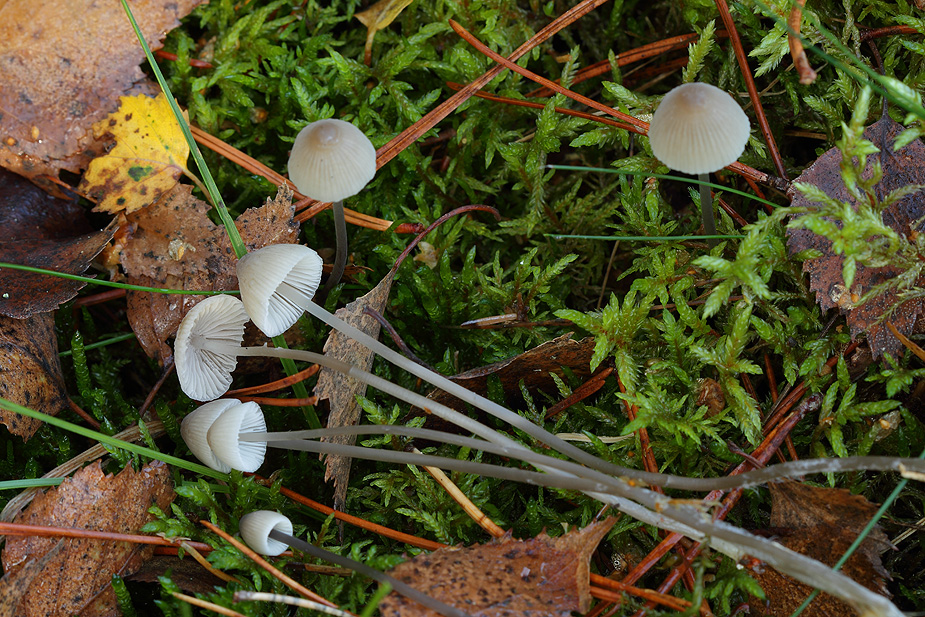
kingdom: Fungi
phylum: Basidiomycota
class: Agaricomycetes
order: Agaricales
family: Mycenaceae
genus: Mycena
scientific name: Mycena filopes
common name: jod-huesvamp
